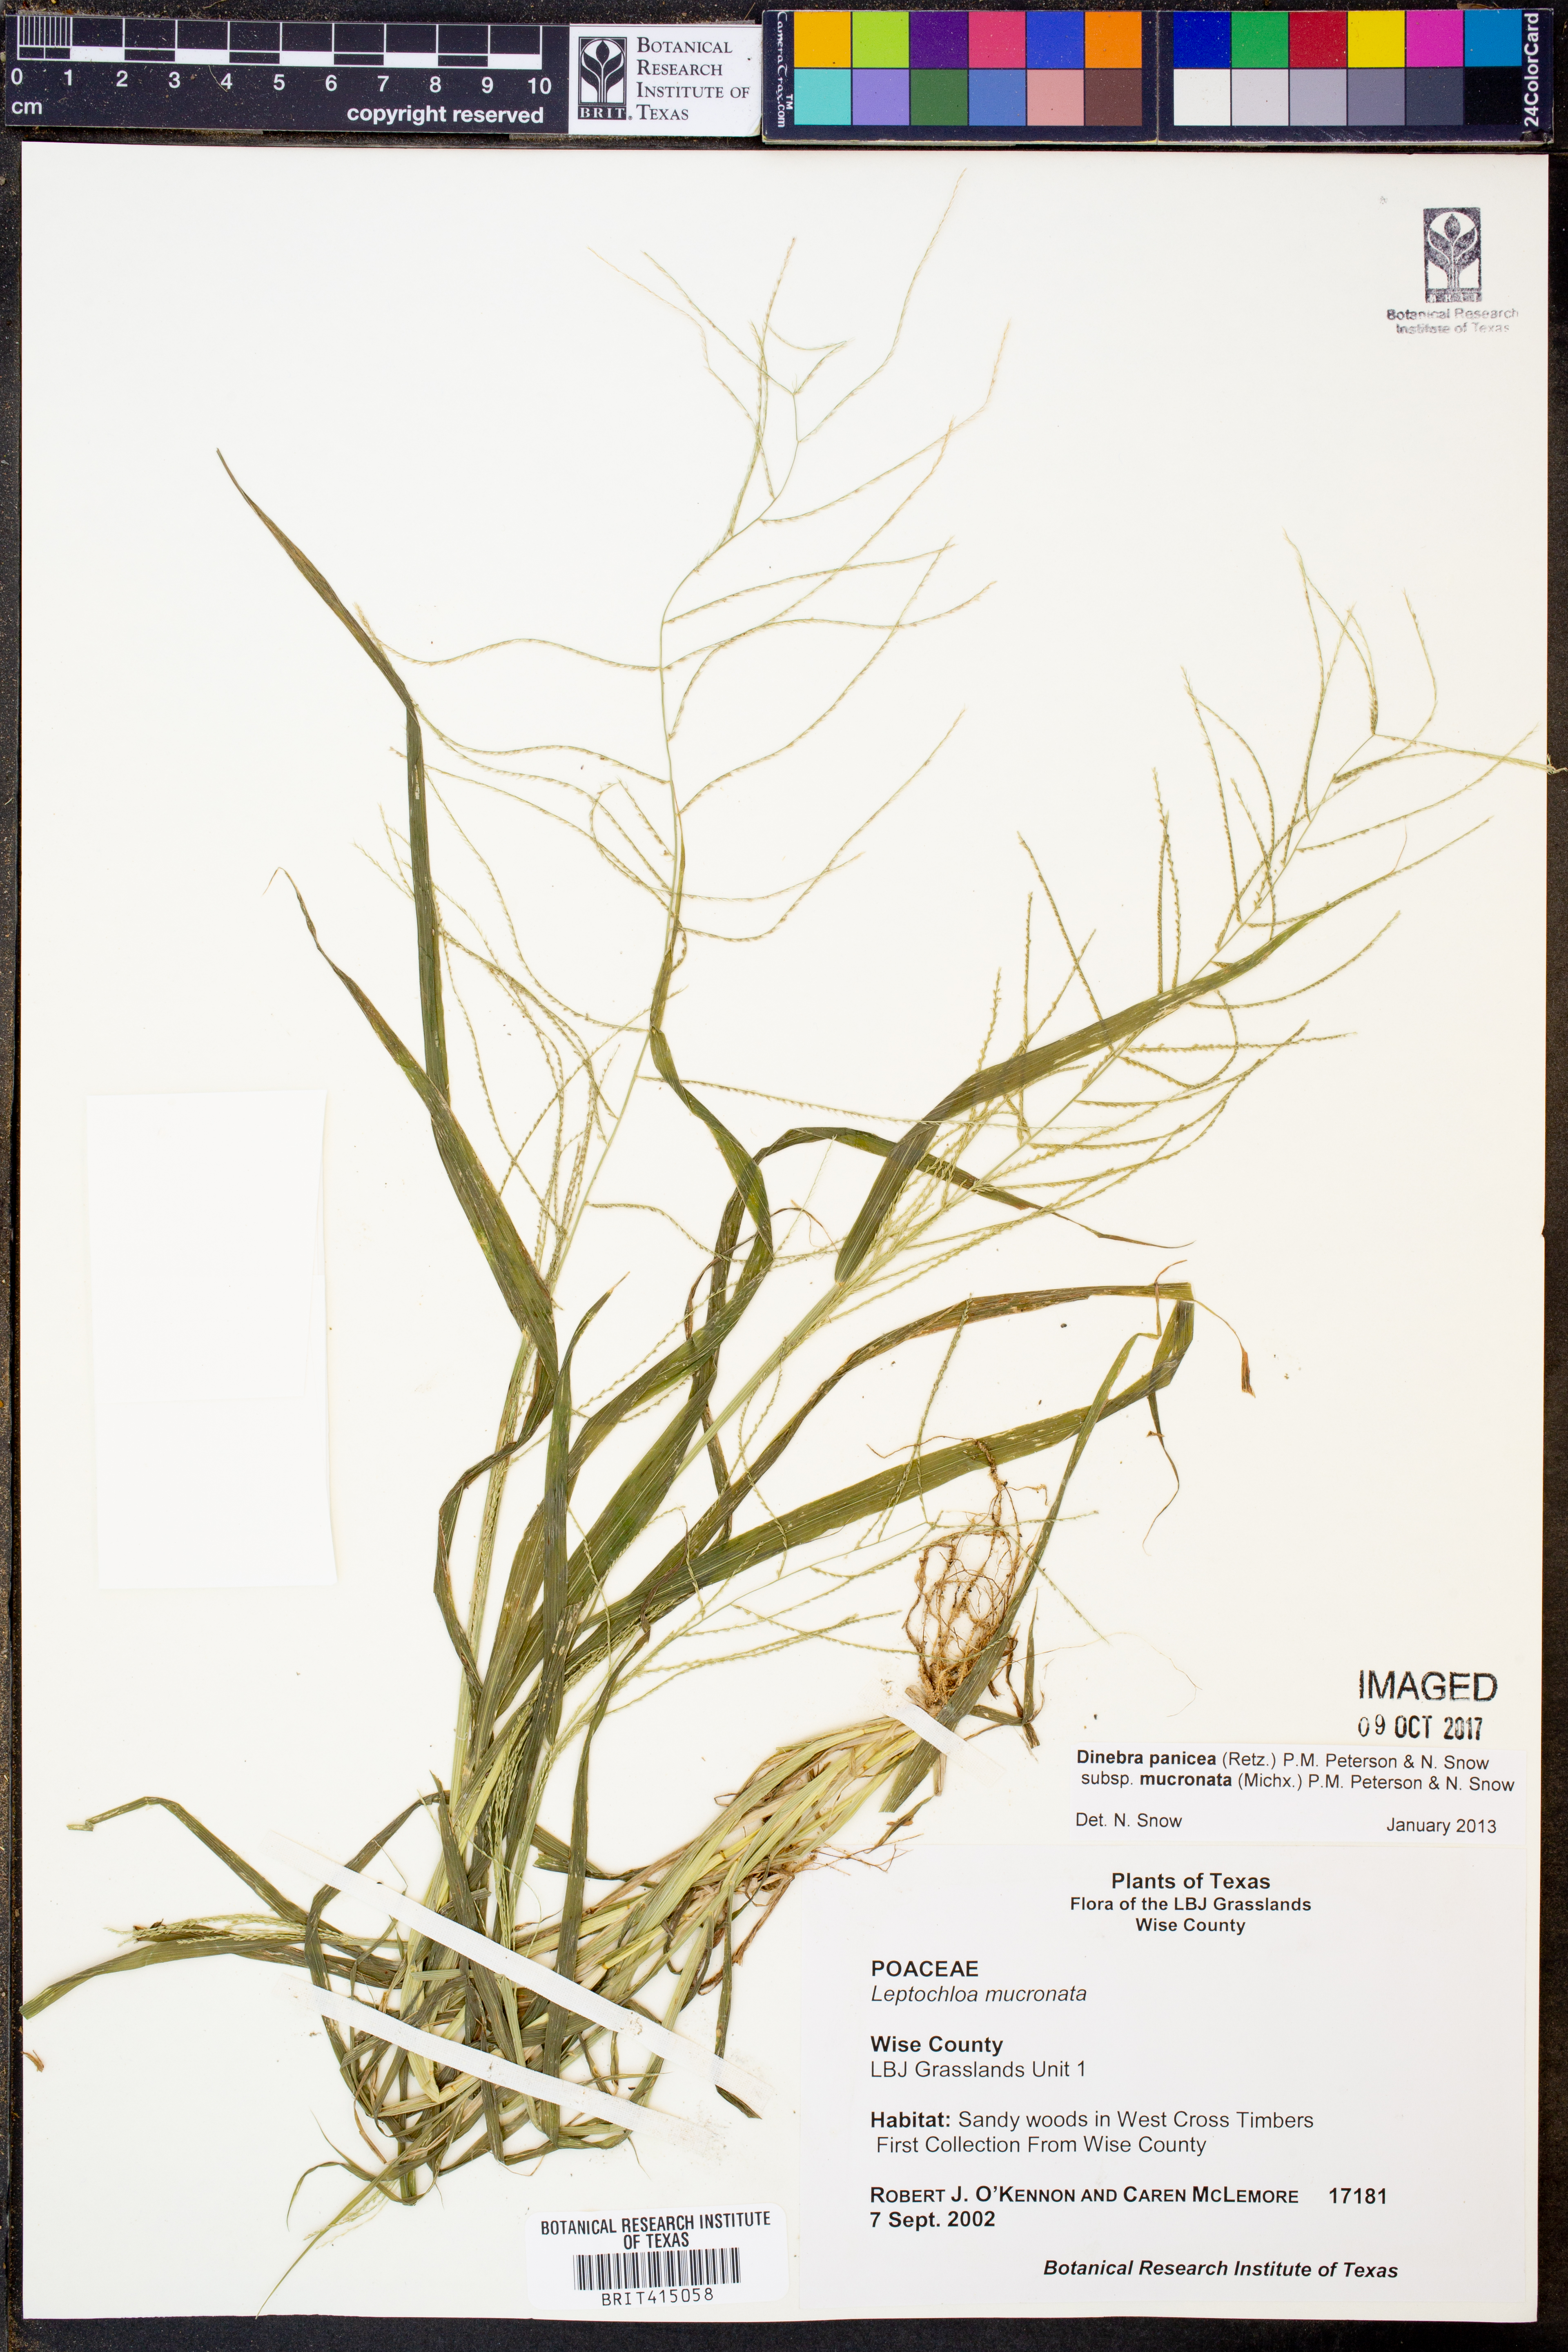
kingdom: Plantae
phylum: Tracheophyta
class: Liliopsida
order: Poales
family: Poaceae
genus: Leptochloa
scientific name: Leptochloa mucronata
